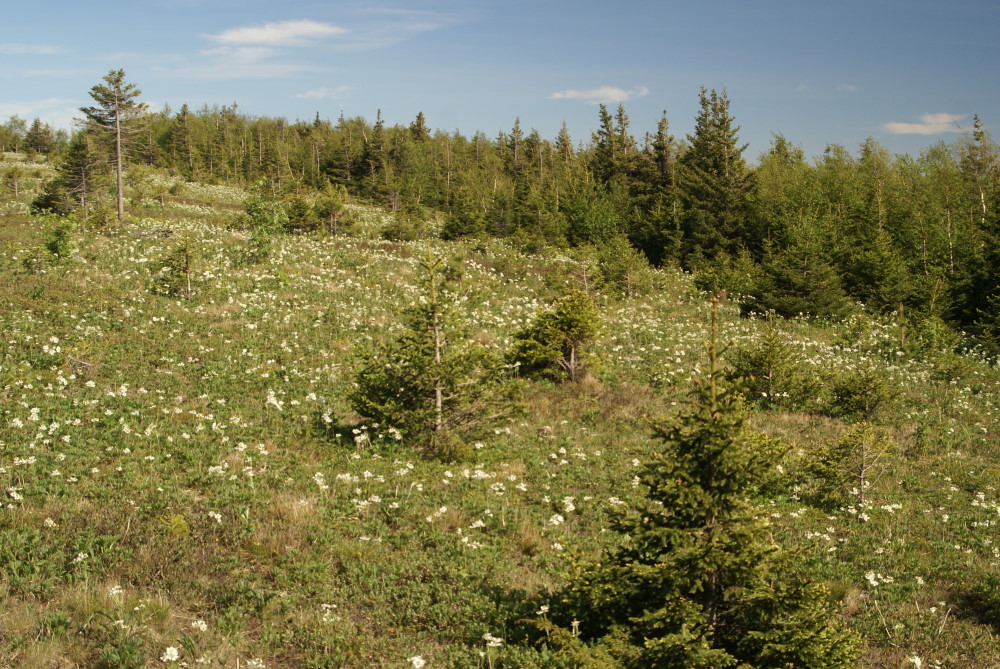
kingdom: Plantae
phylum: Tracheophyta
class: Magnoliopsida
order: Ranunculales
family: Ranunculaceae
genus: Anemonastrum
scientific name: Anemonastrum biarmiense
